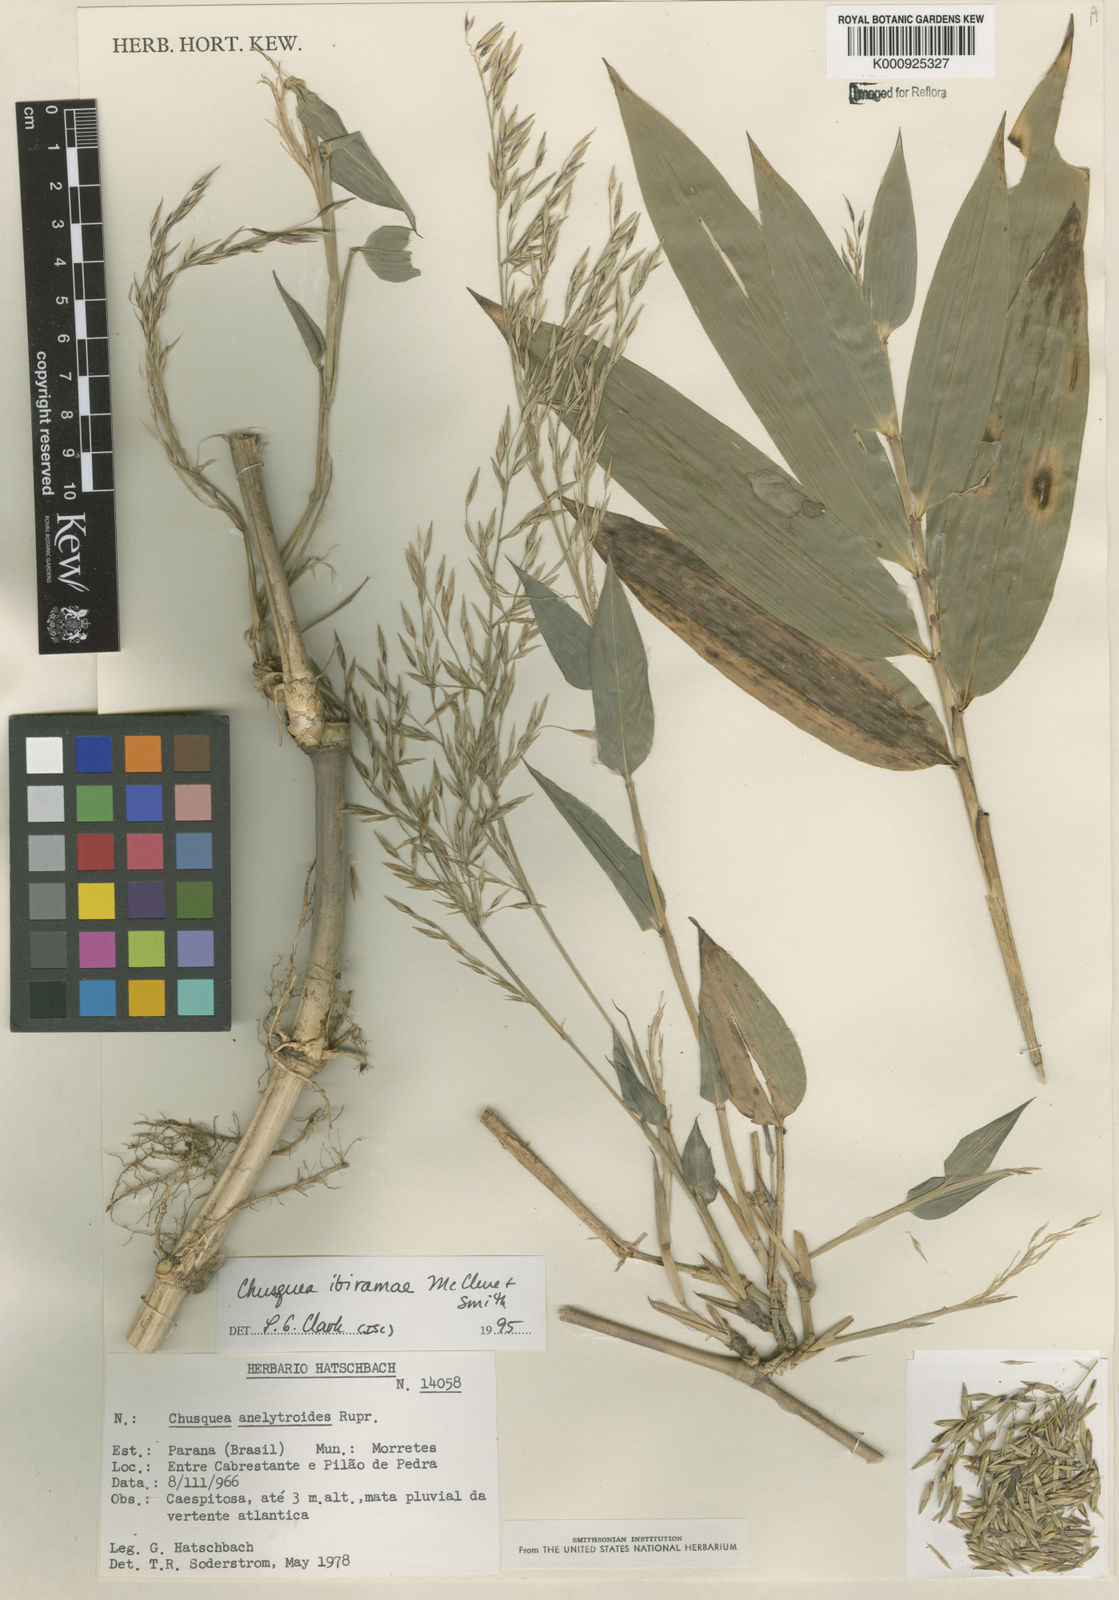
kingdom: Plantae
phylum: Tracheophyta
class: Liliopsida
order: Poales
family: Poaceae
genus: Chusquea
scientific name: Chusquea ibiramae
